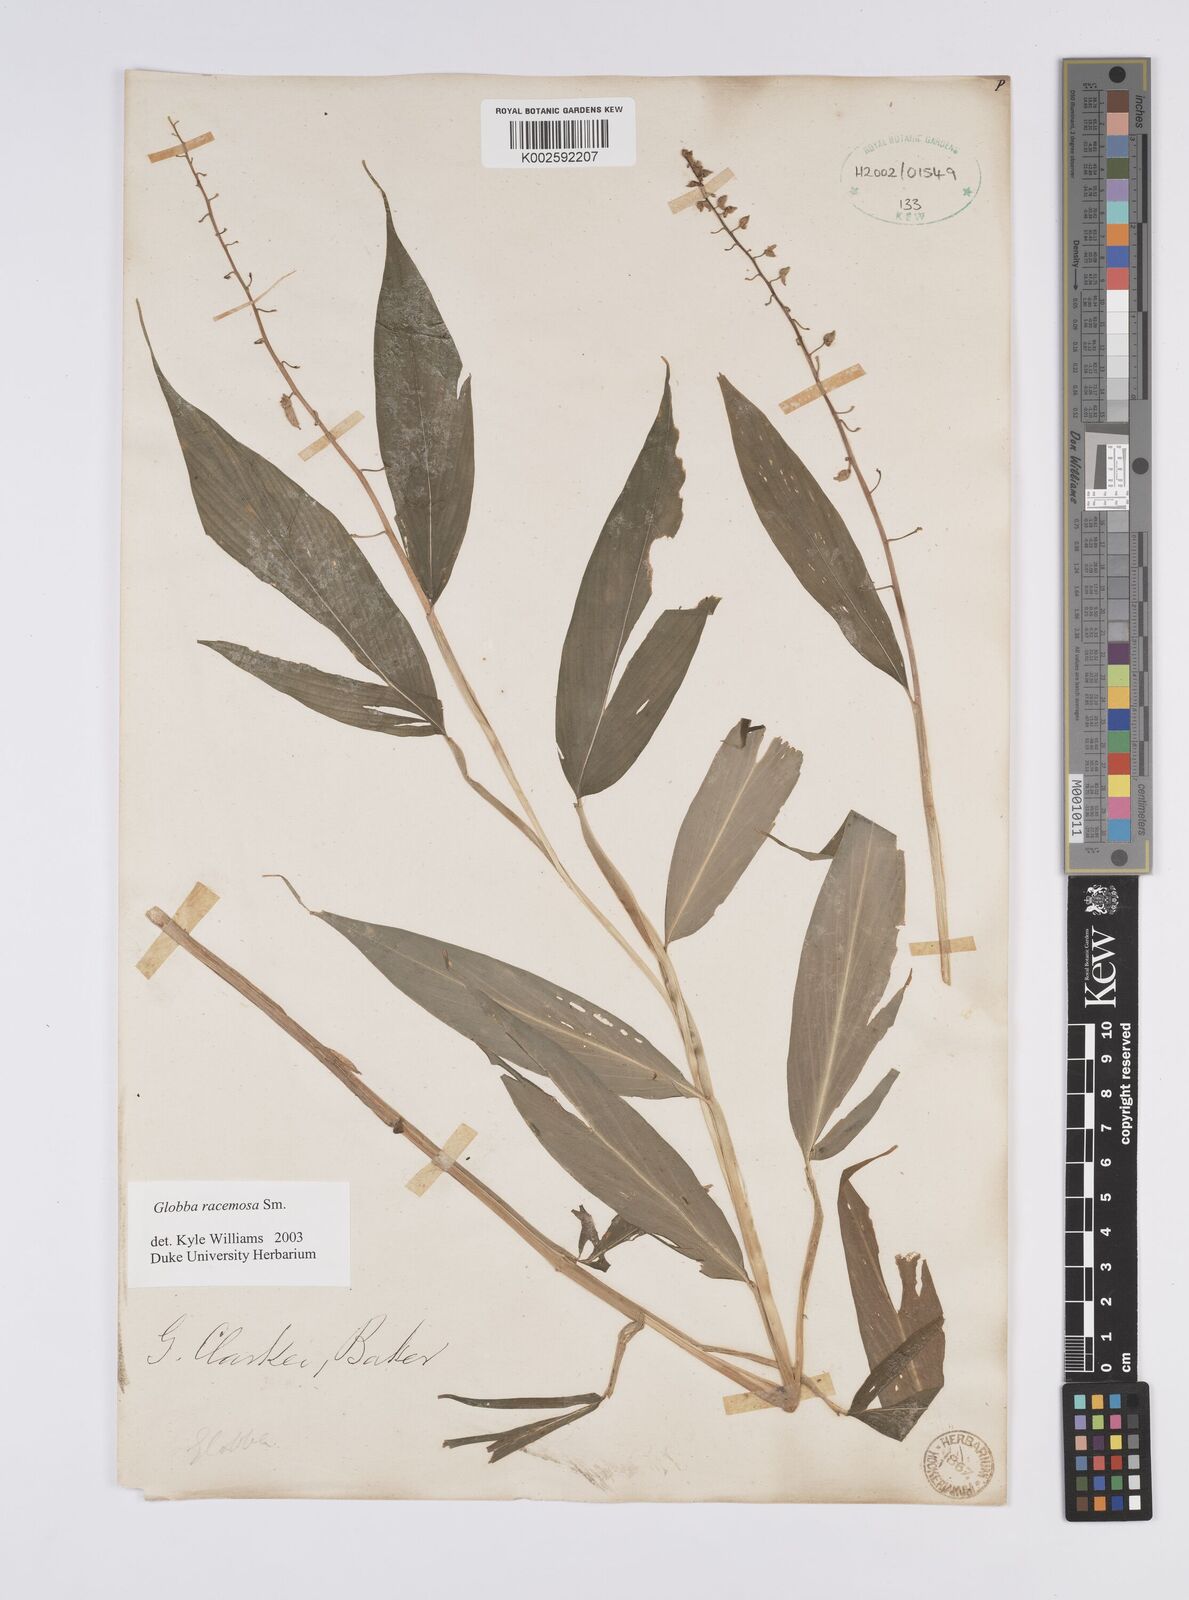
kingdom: Plantae
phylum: Tracheophyta
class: Liliopsida
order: Zingiberales
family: Zingiberaceae
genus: Globba
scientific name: Globba racemosa
